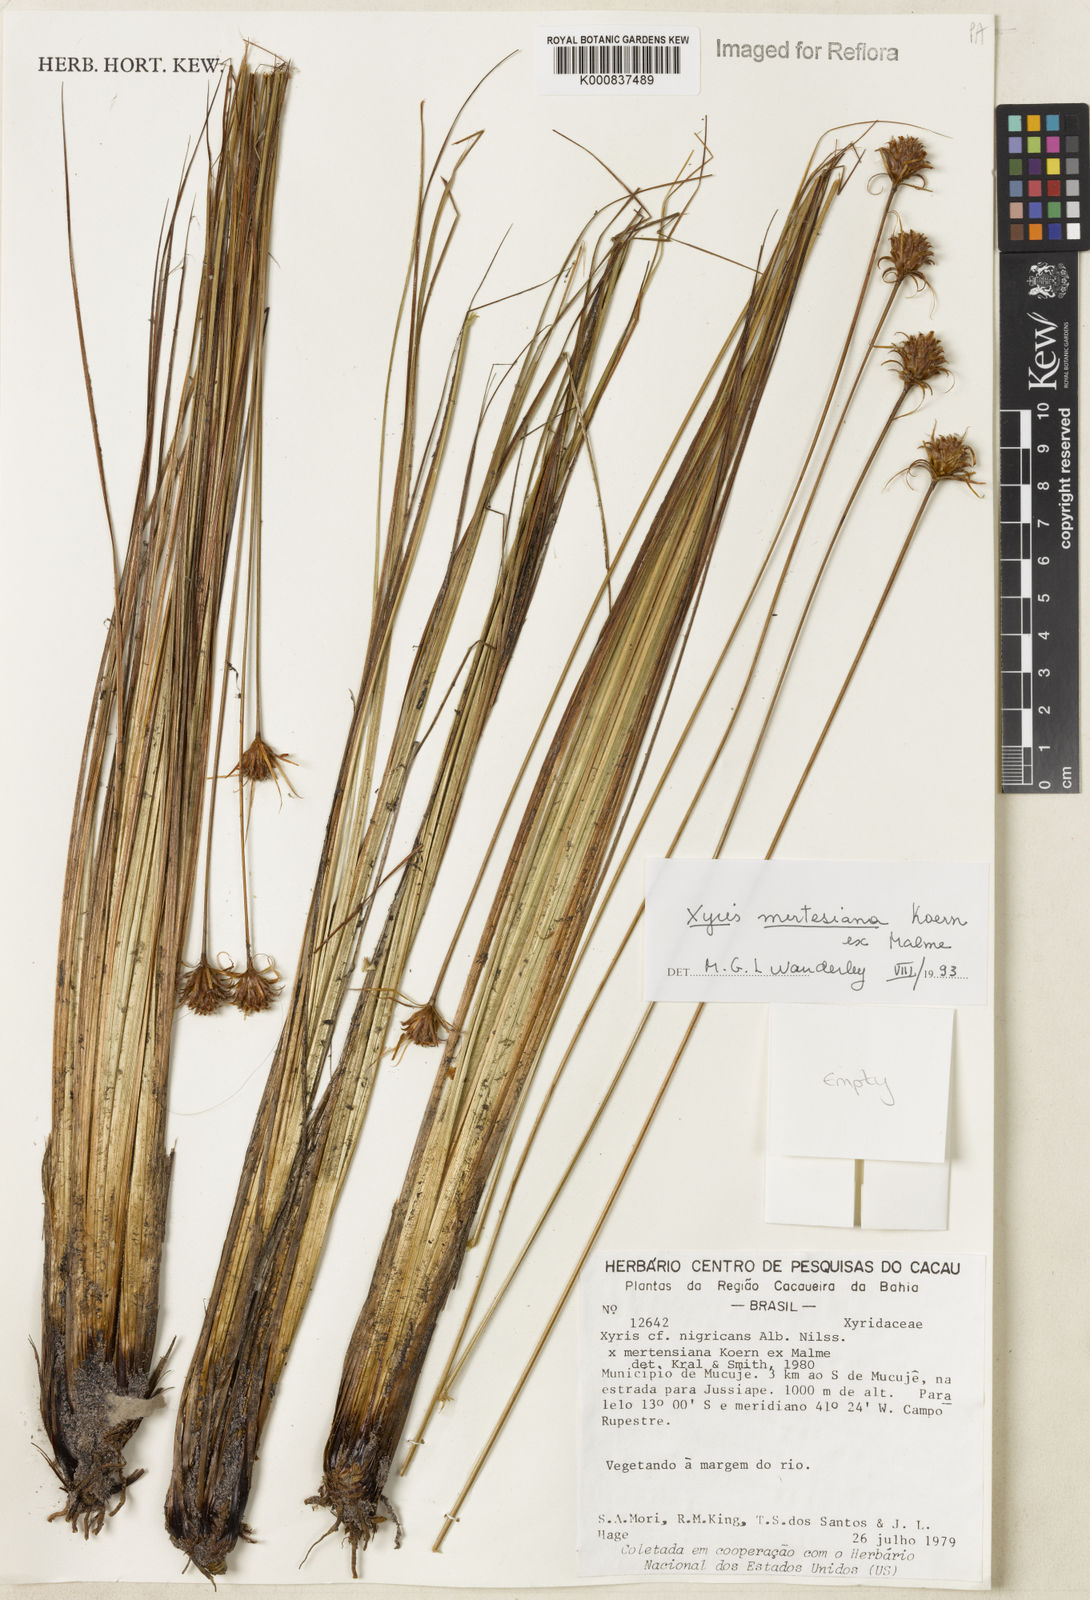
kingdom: Plantae
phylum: Tracheophyta
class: Liliopsida
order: Poales
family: Xyridaceae
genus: Xyris
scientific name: Xyris
